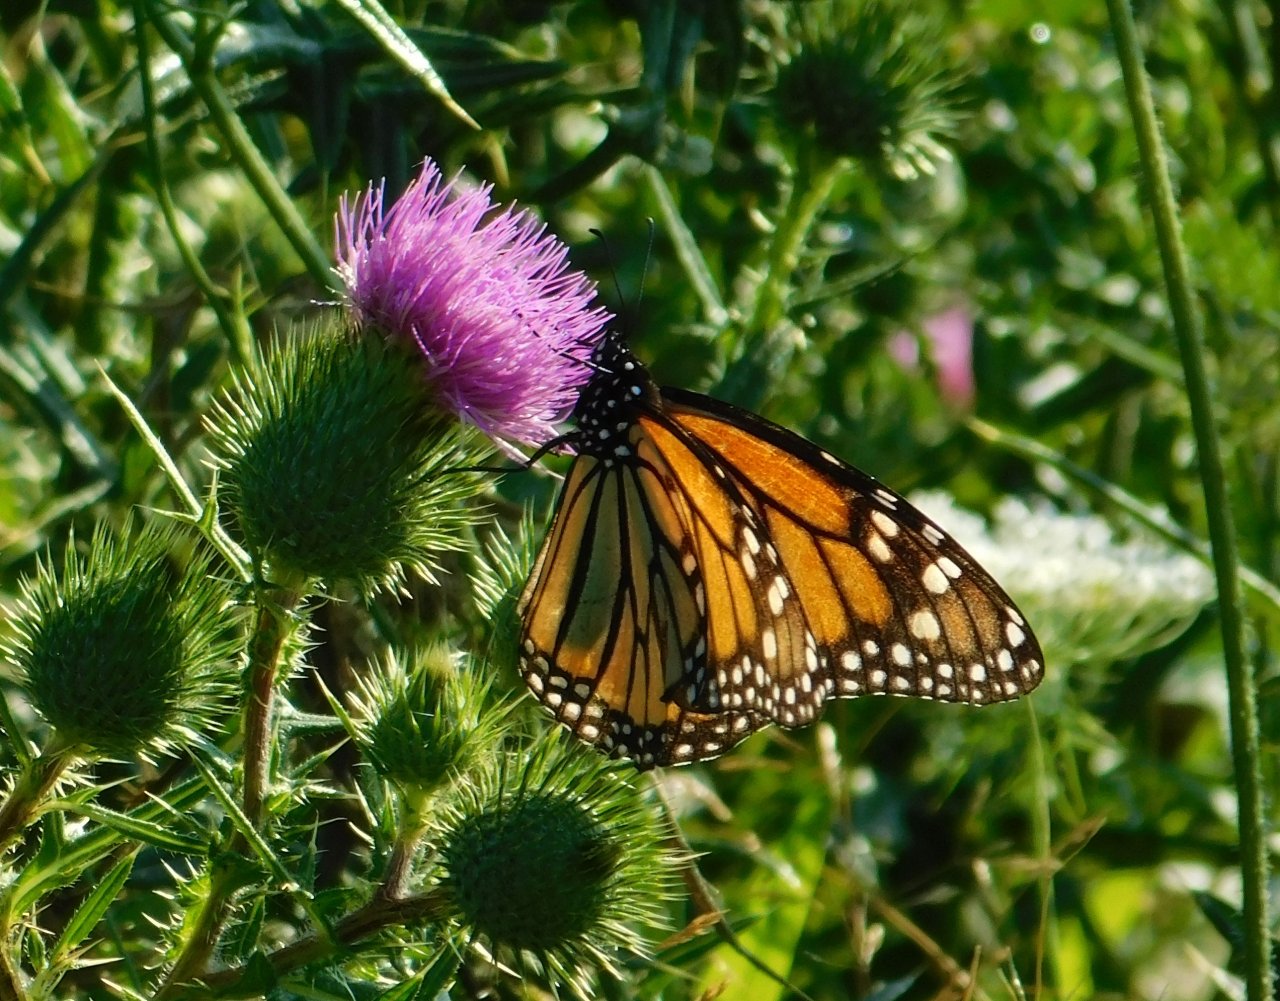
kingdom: Animalia
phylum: Arthropoda
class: Insecta
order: Lepidoptera
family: Nymphalidae
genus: Danaus
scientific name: Danaus plexippus
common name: Monarch
